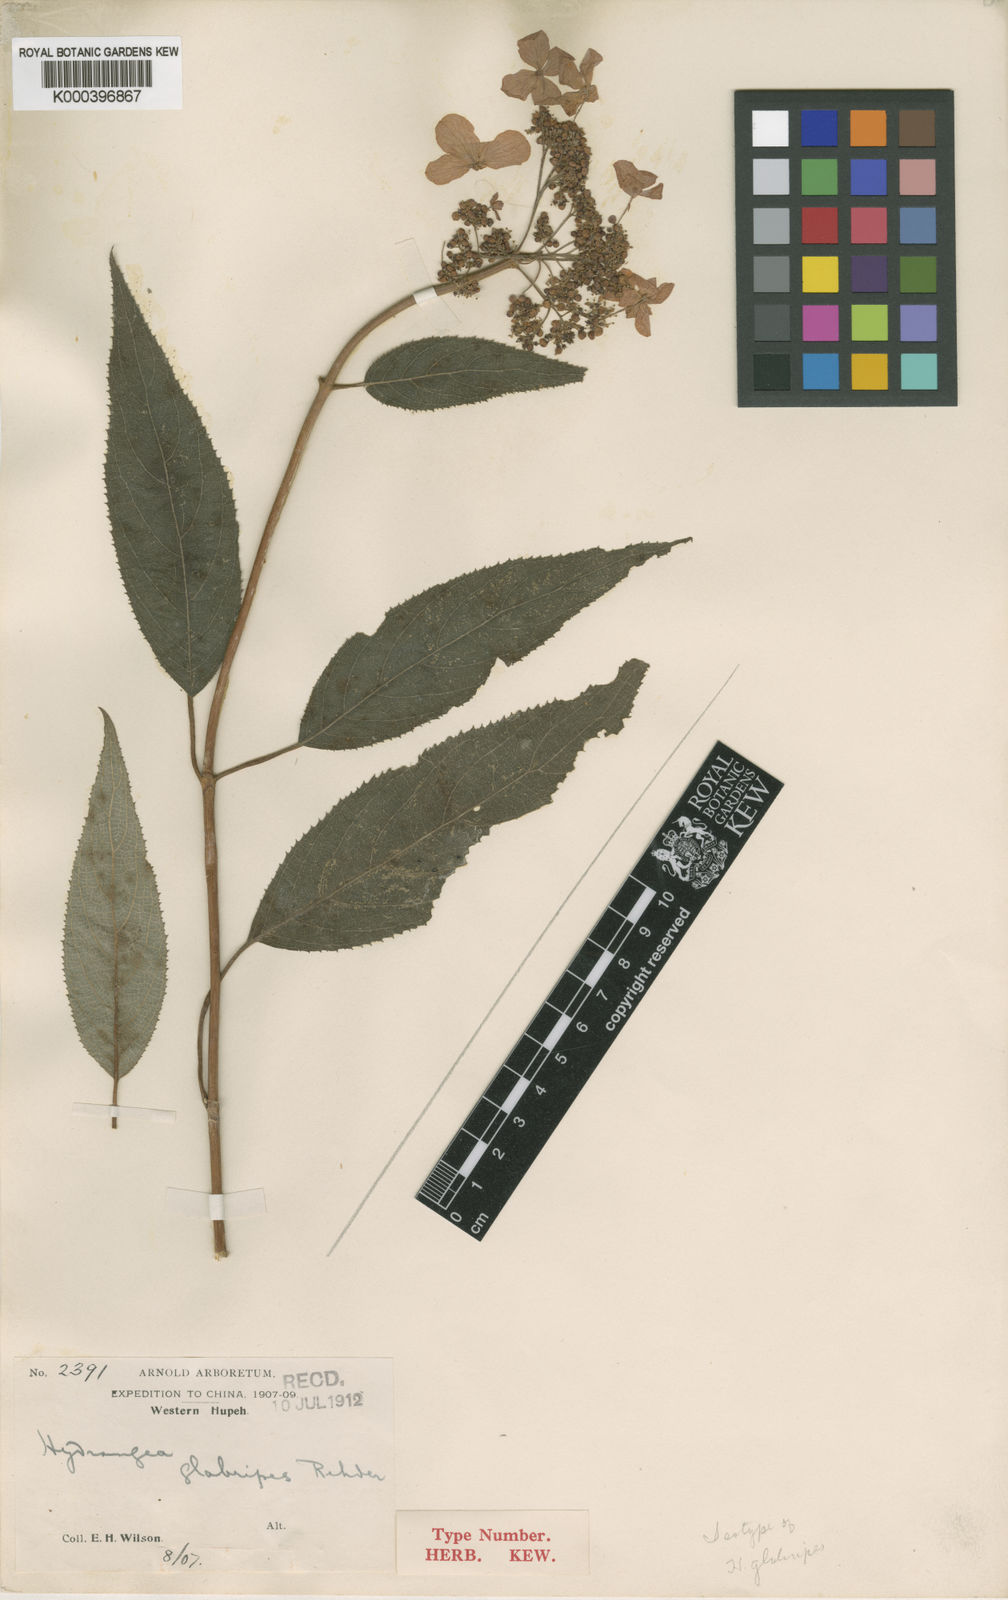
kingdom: Plantae
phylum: Tracheophyta
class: Magnoliopsida
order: Cornales
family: Hydrangeaceae
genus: Hydrangea
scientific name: Hydrangea aspera
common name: Rough-leaf hydrangea
